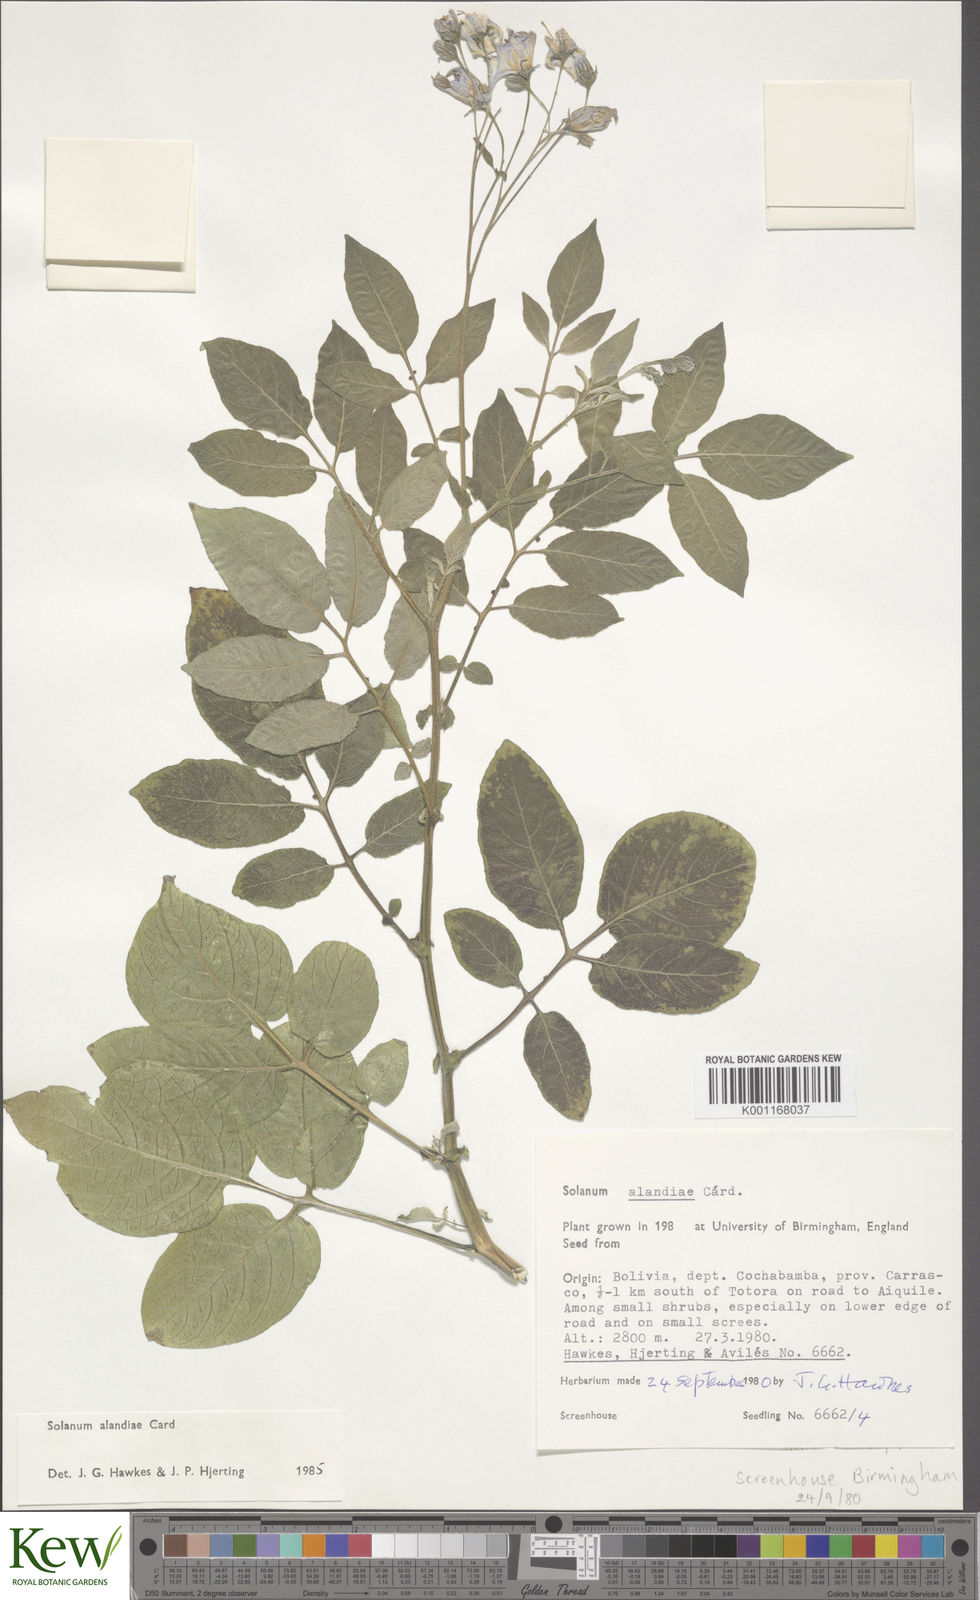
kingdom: Plantae
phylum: Tracheophyta
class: Magnoliopsida
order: Solanales
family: Solanaceae
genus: Solanum
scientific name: Solanum
